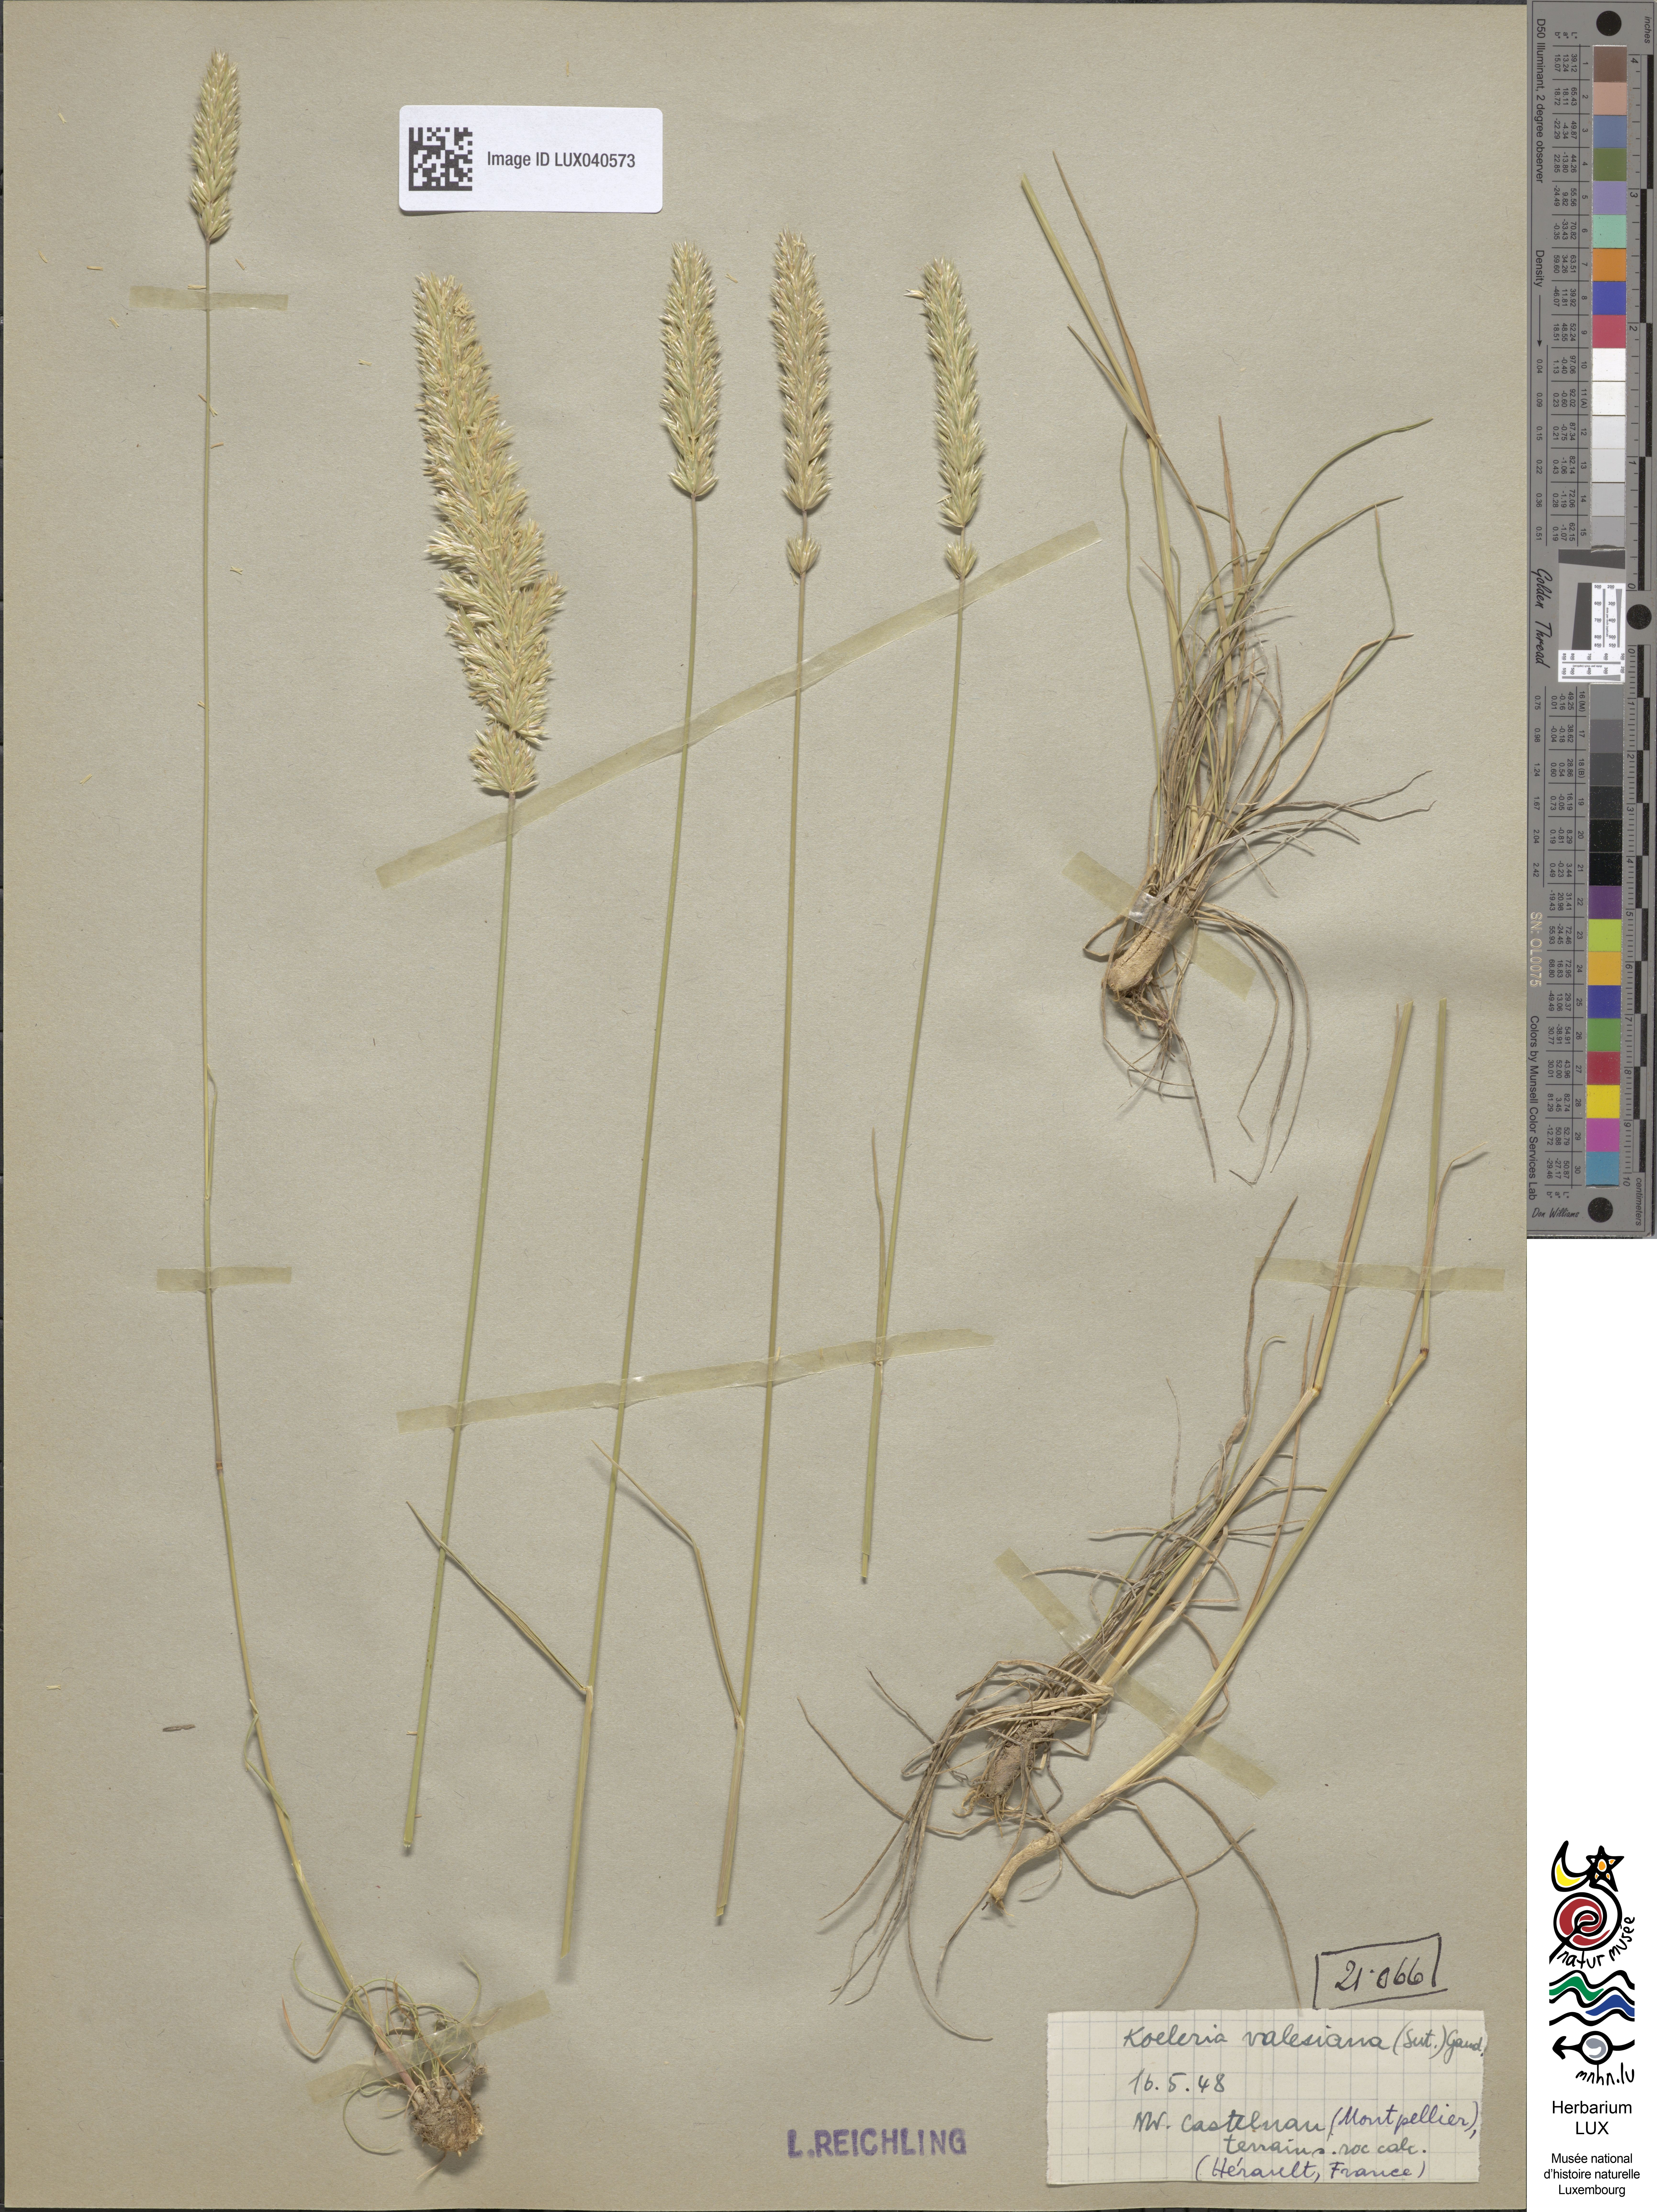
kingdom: Plantae
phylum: Tracheophyta
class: Liliopsida
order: Poales
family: Poaceae
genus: Koeleria
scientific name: Koeleria vallesiana
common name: Somerset hair-grass
